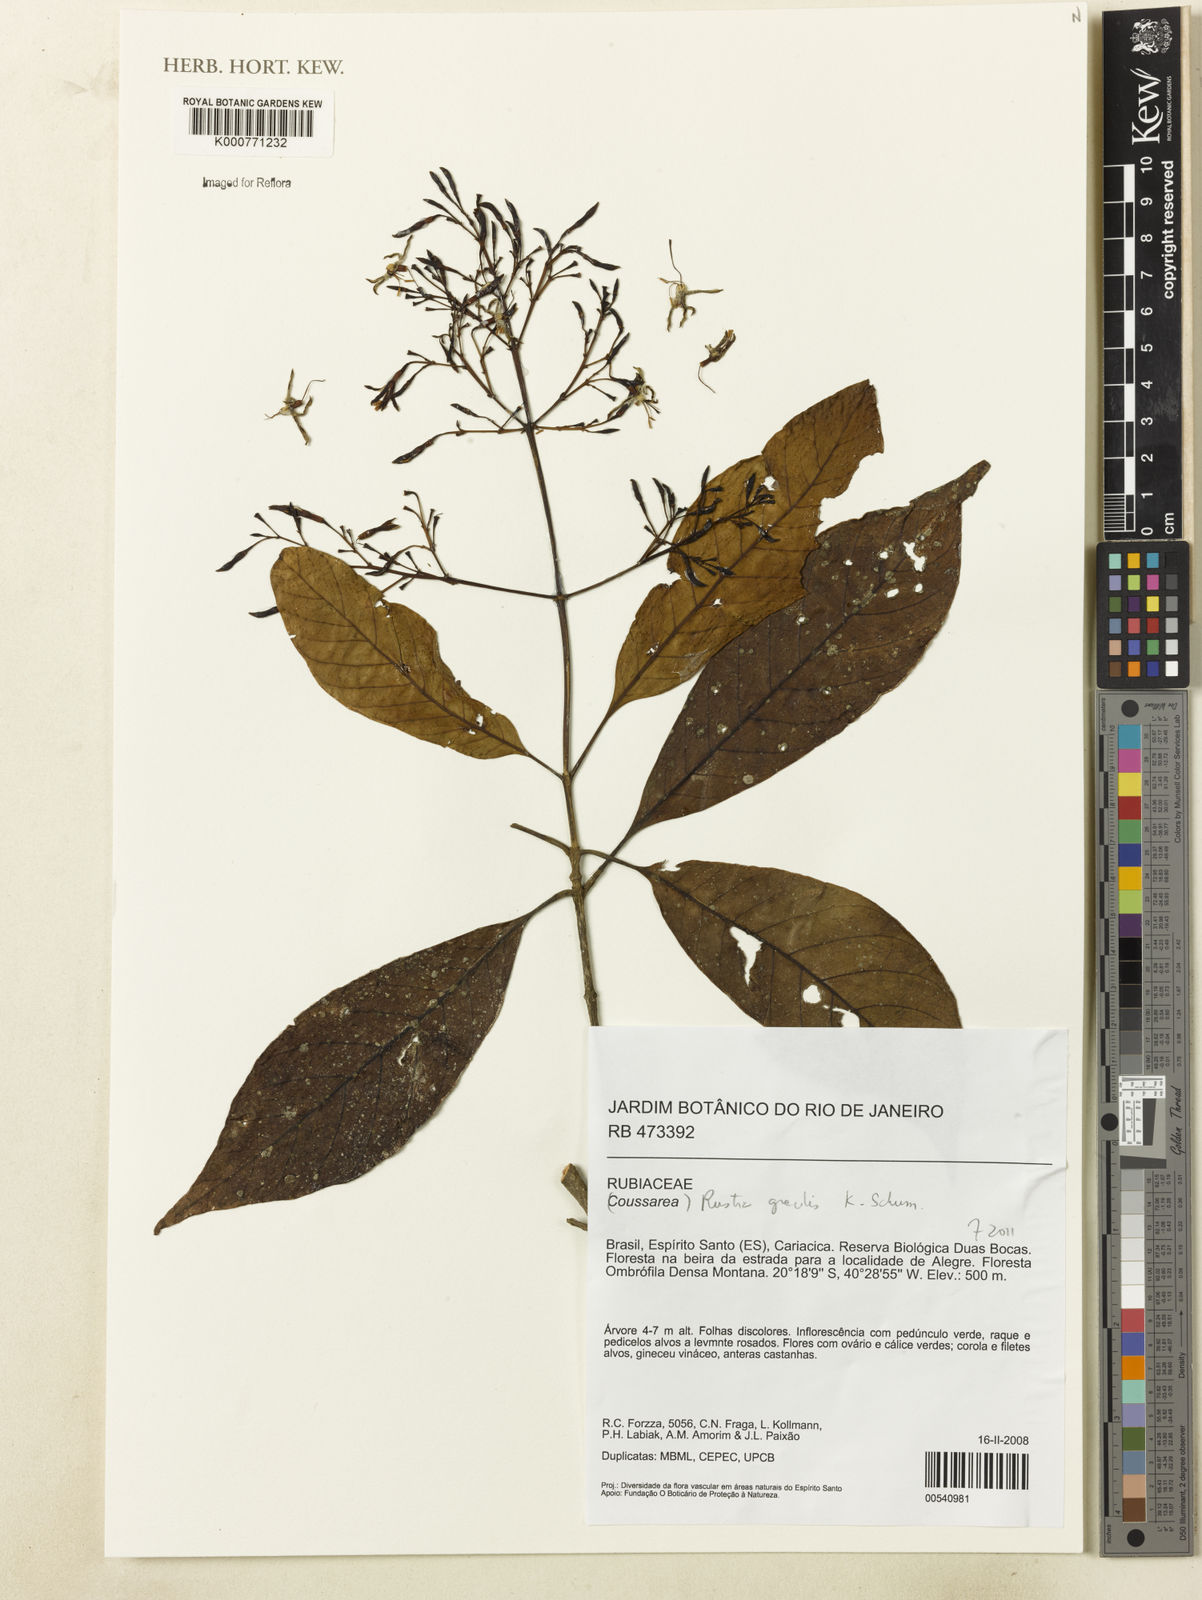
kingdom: Plantae
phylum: Tracheophyta
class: Magnoliopsida
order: Gentianales
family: Rubiaceae
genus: Rustia
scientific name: Rustia gracilis
